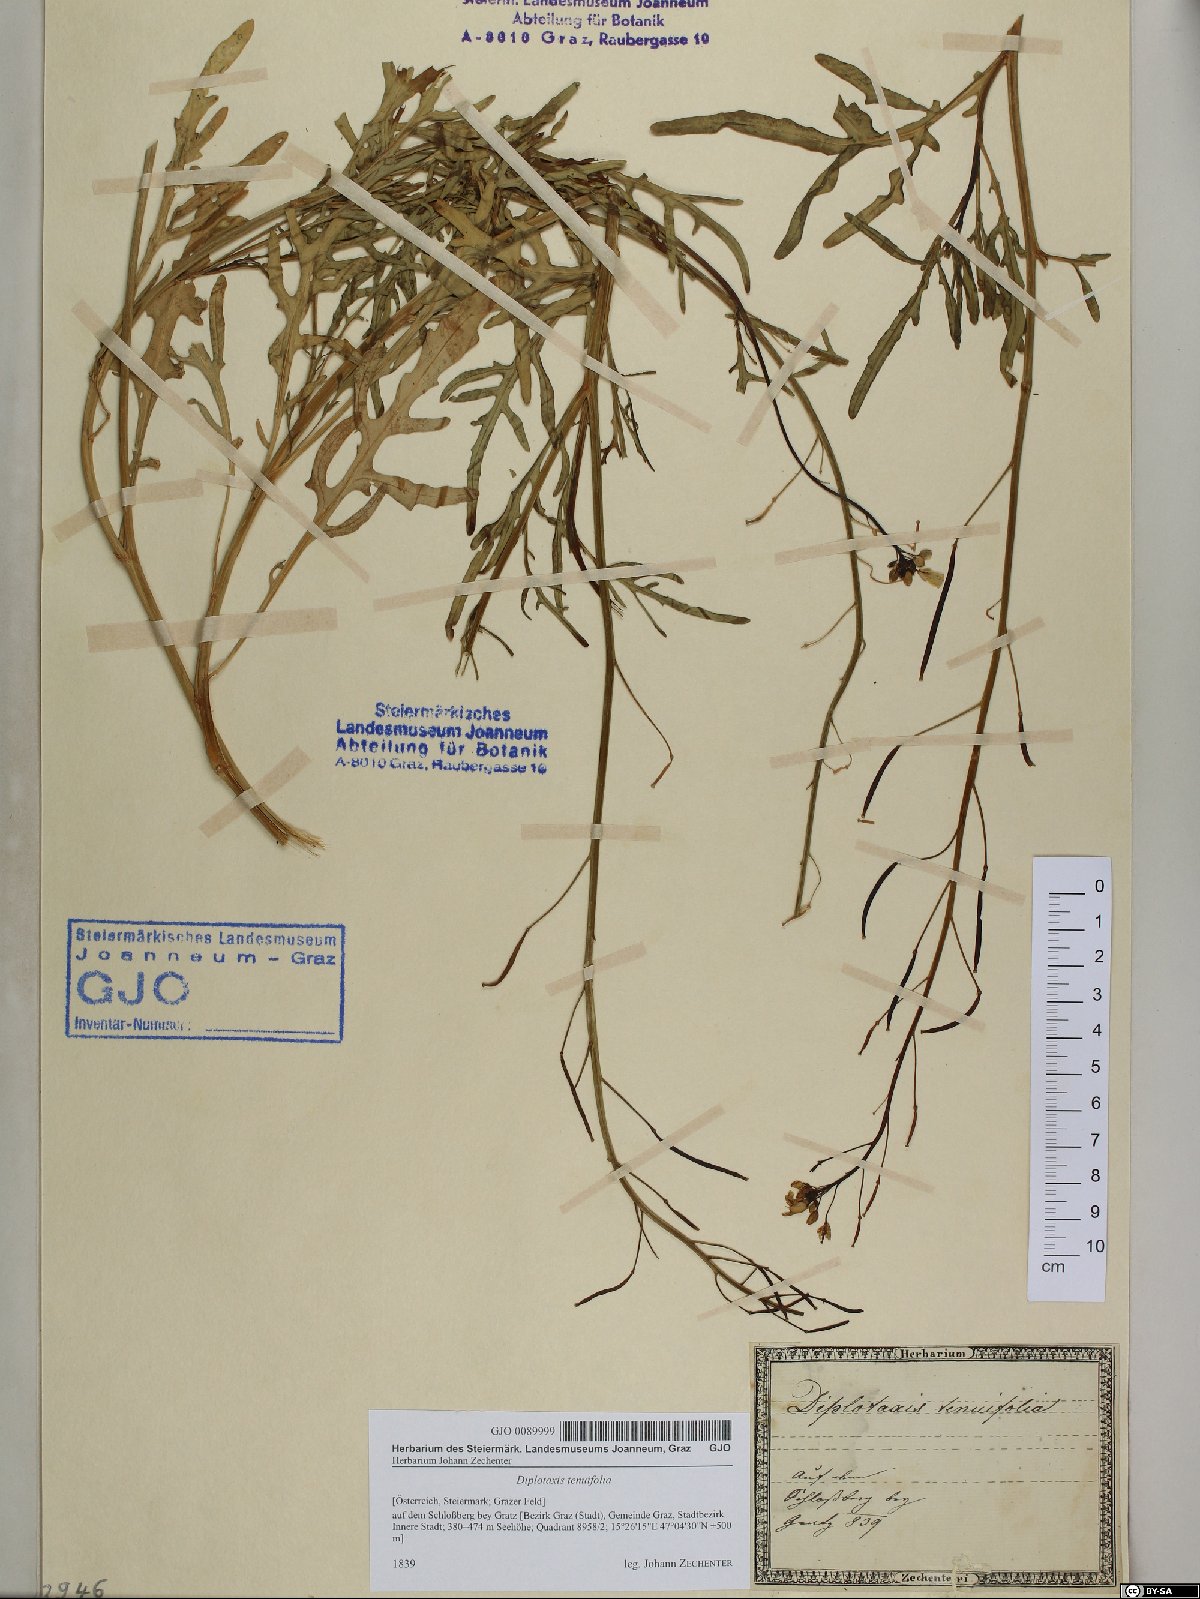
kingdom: Plantae
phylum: Tracheophyta
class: Magnoliopsida
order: Brassicales
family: Brassicaceae
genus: Diplotaxis
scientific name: Diplotaxis tenuifolia
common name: Perennial wall-rocket
